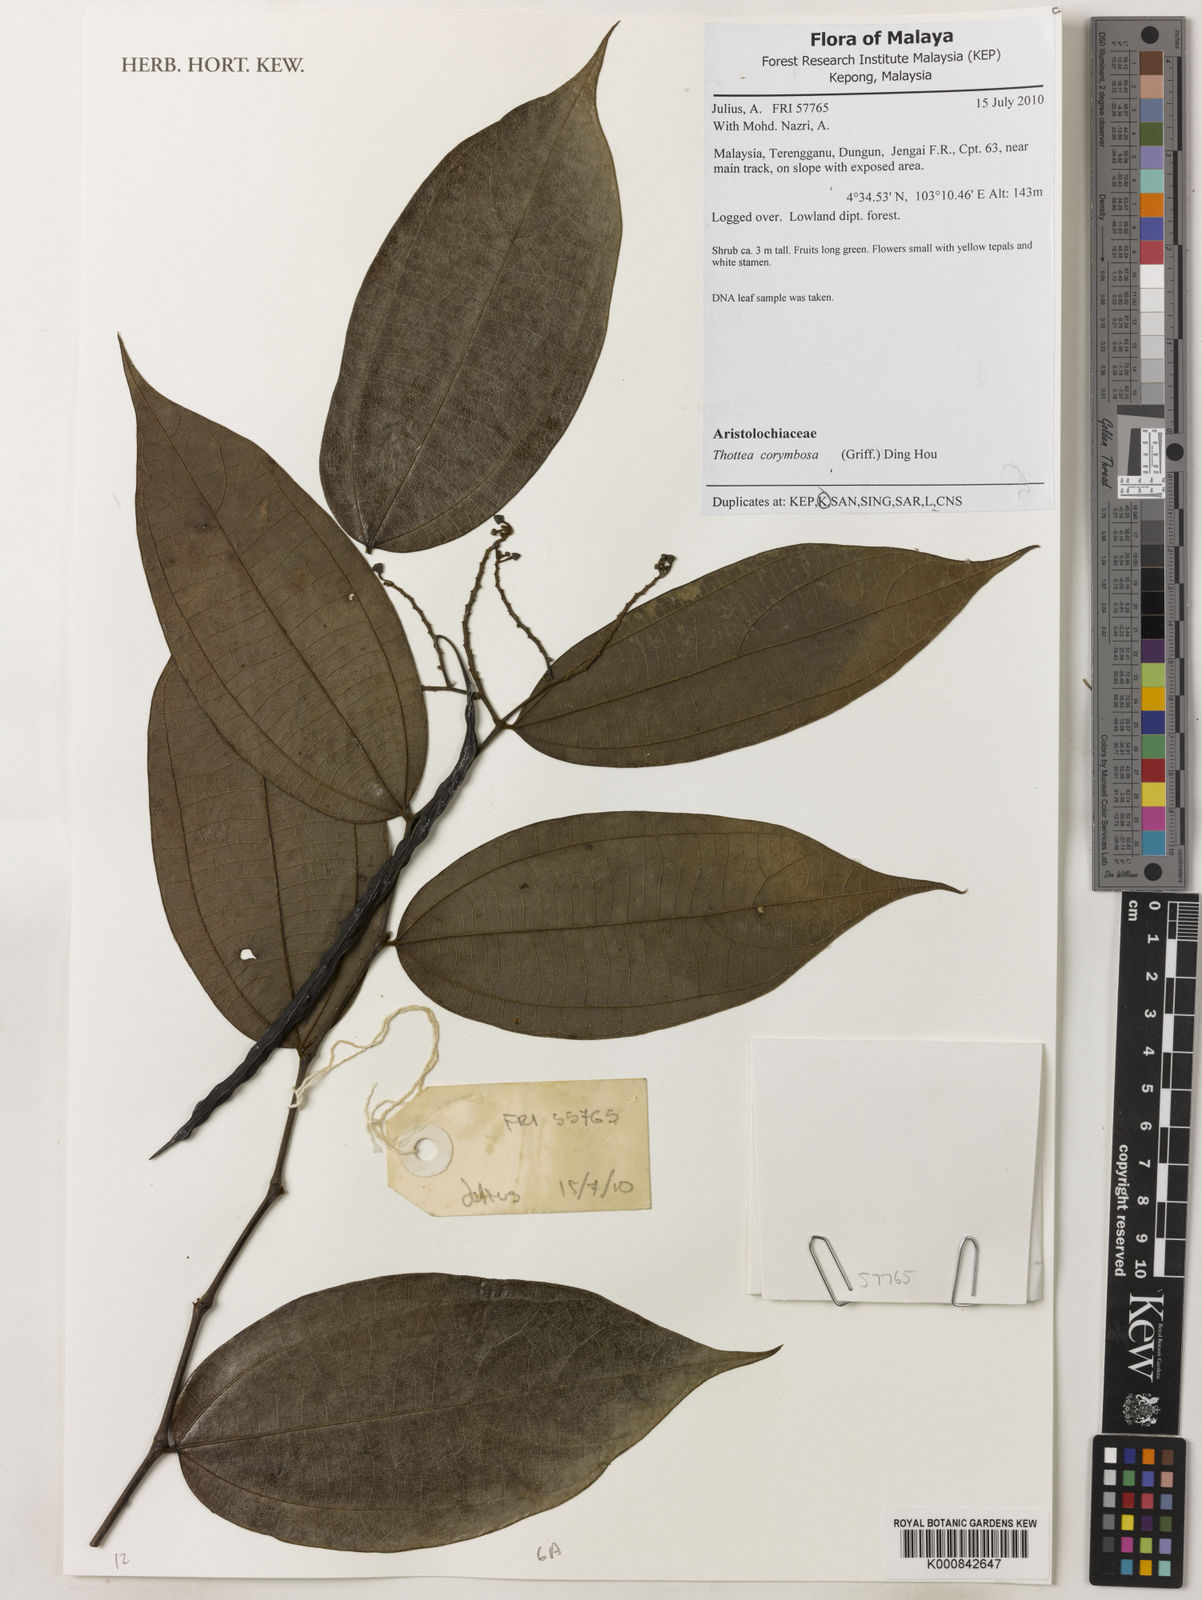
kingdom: Plantae
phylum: Tracheophyta
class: Magnoliopsida
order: Piperales
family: Aristolochiaceae
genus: Thottea
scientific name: Thottea piperiformis
